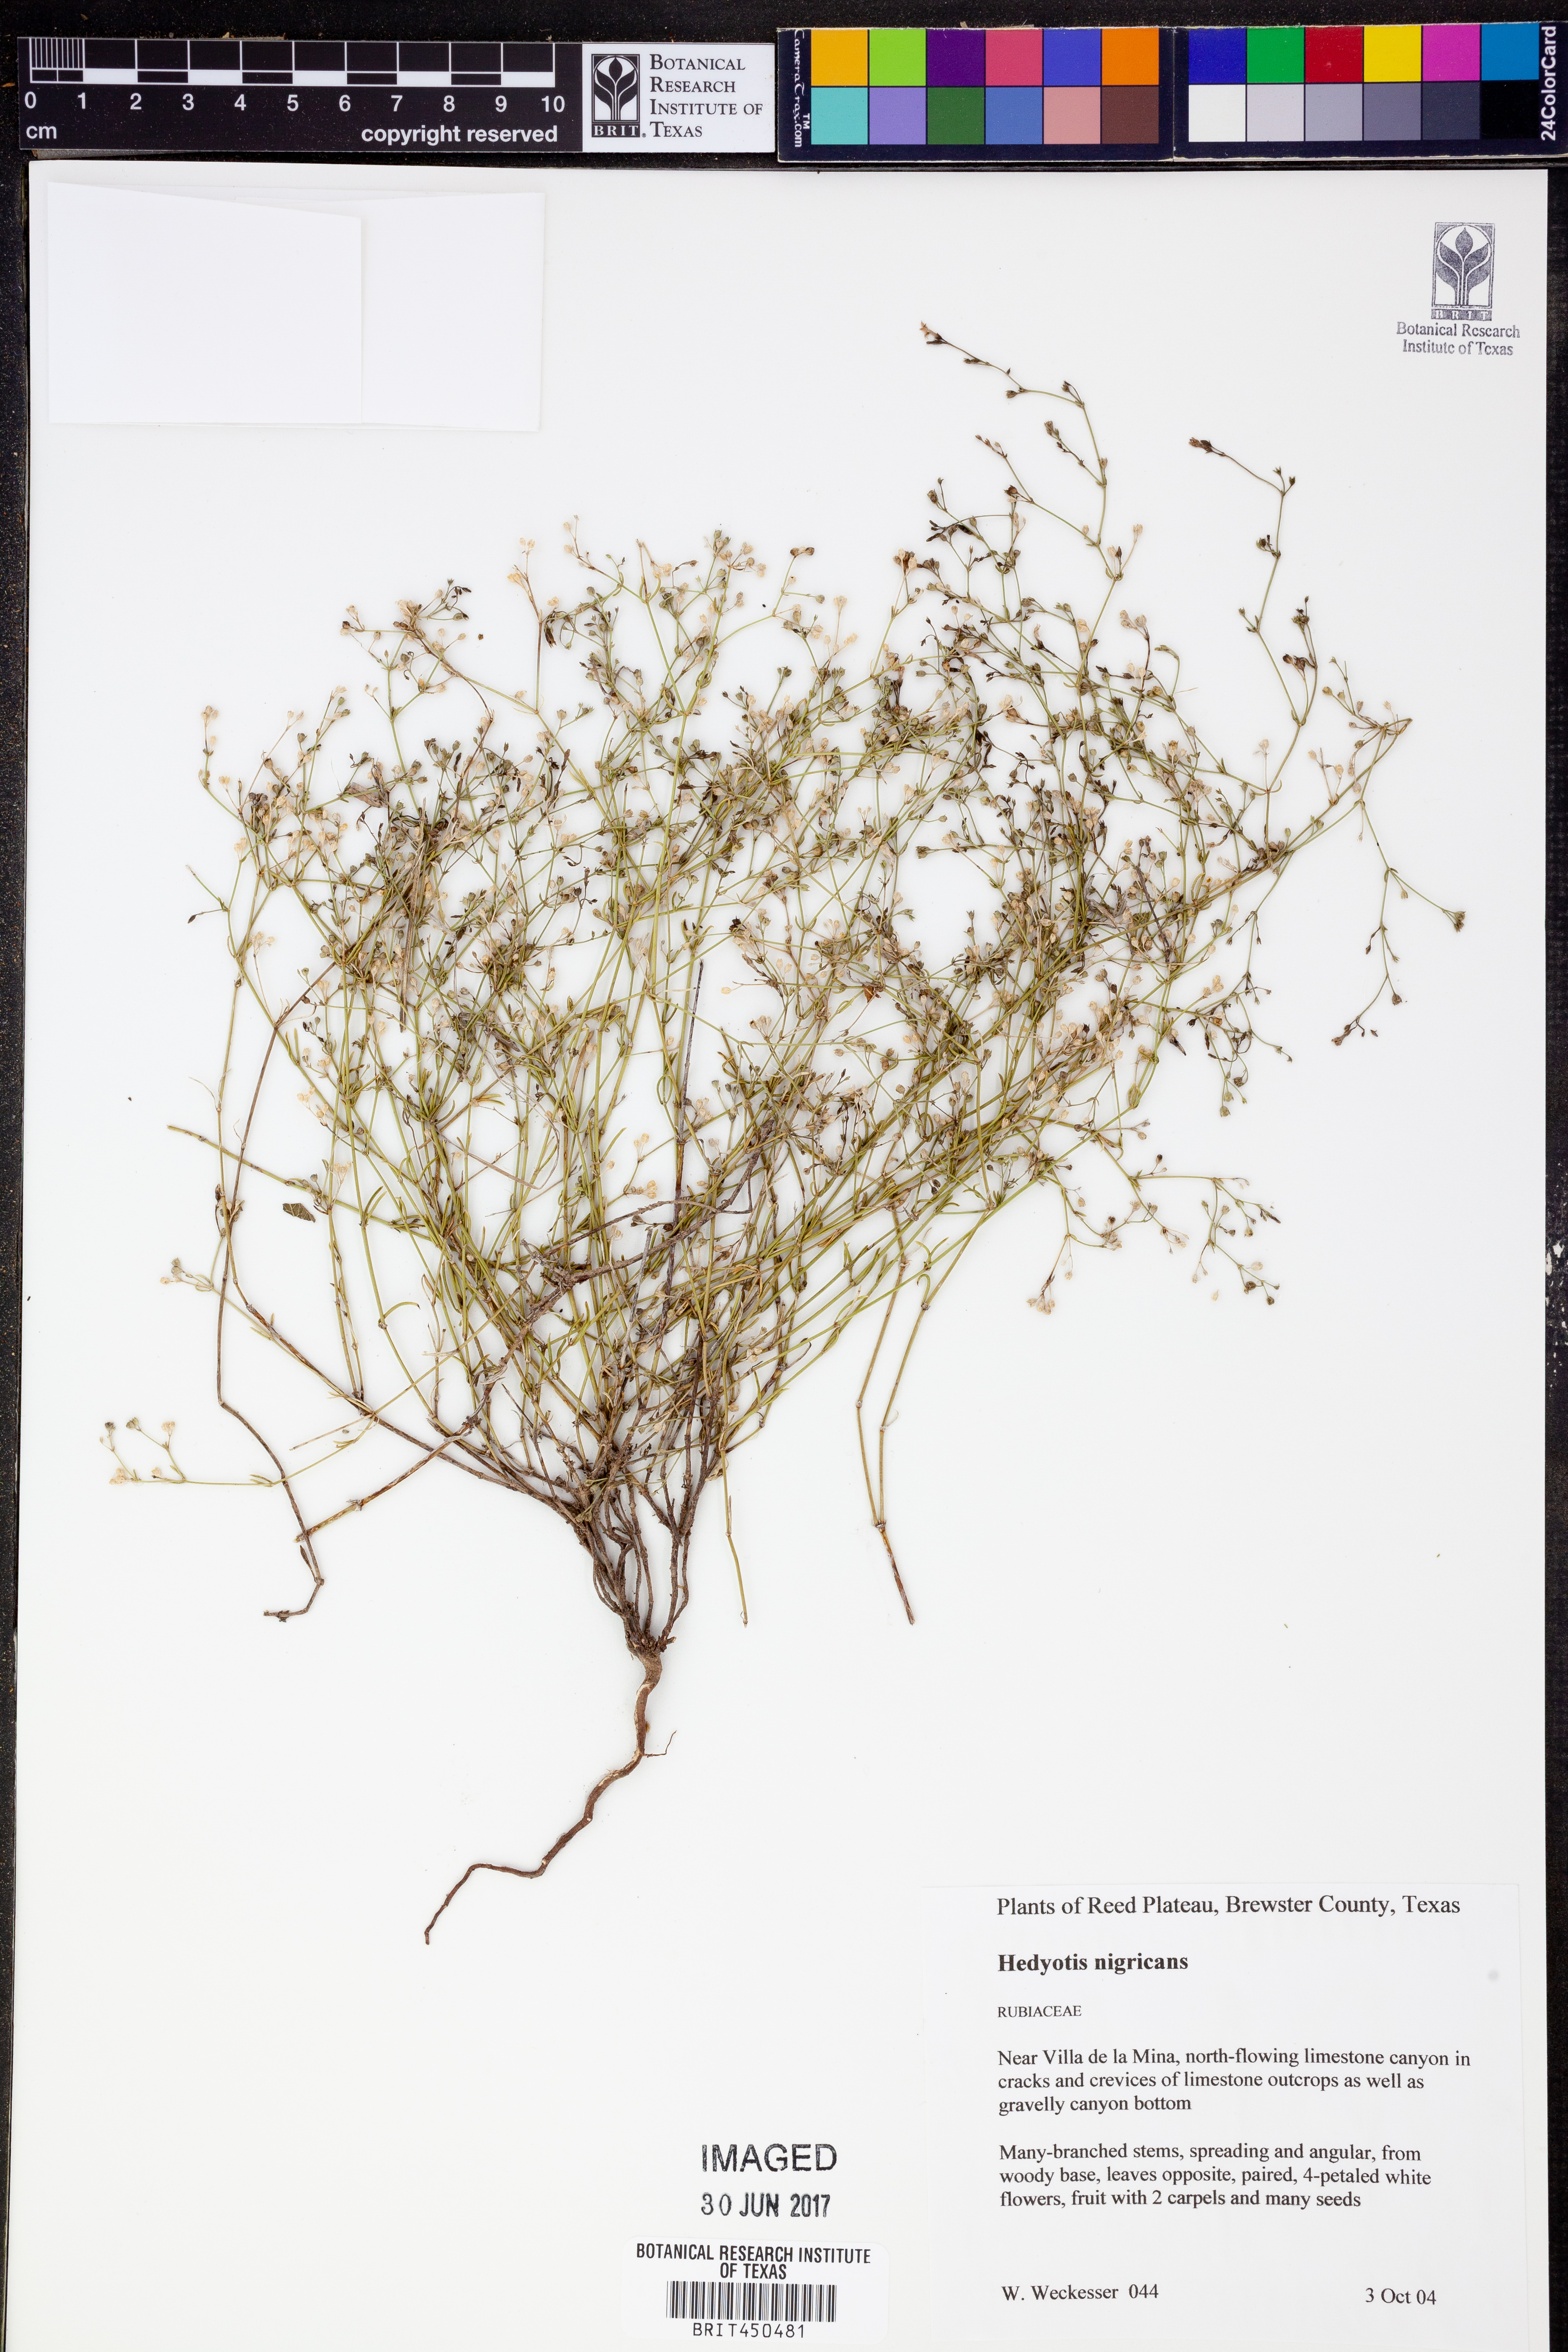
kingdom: Plantae
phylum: Tracheophyta
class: Magnoliopsida
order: Gentianales
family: Rubiaceae
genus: Stenaria
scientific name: Stenaria nigricans
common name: Diamondflowers
